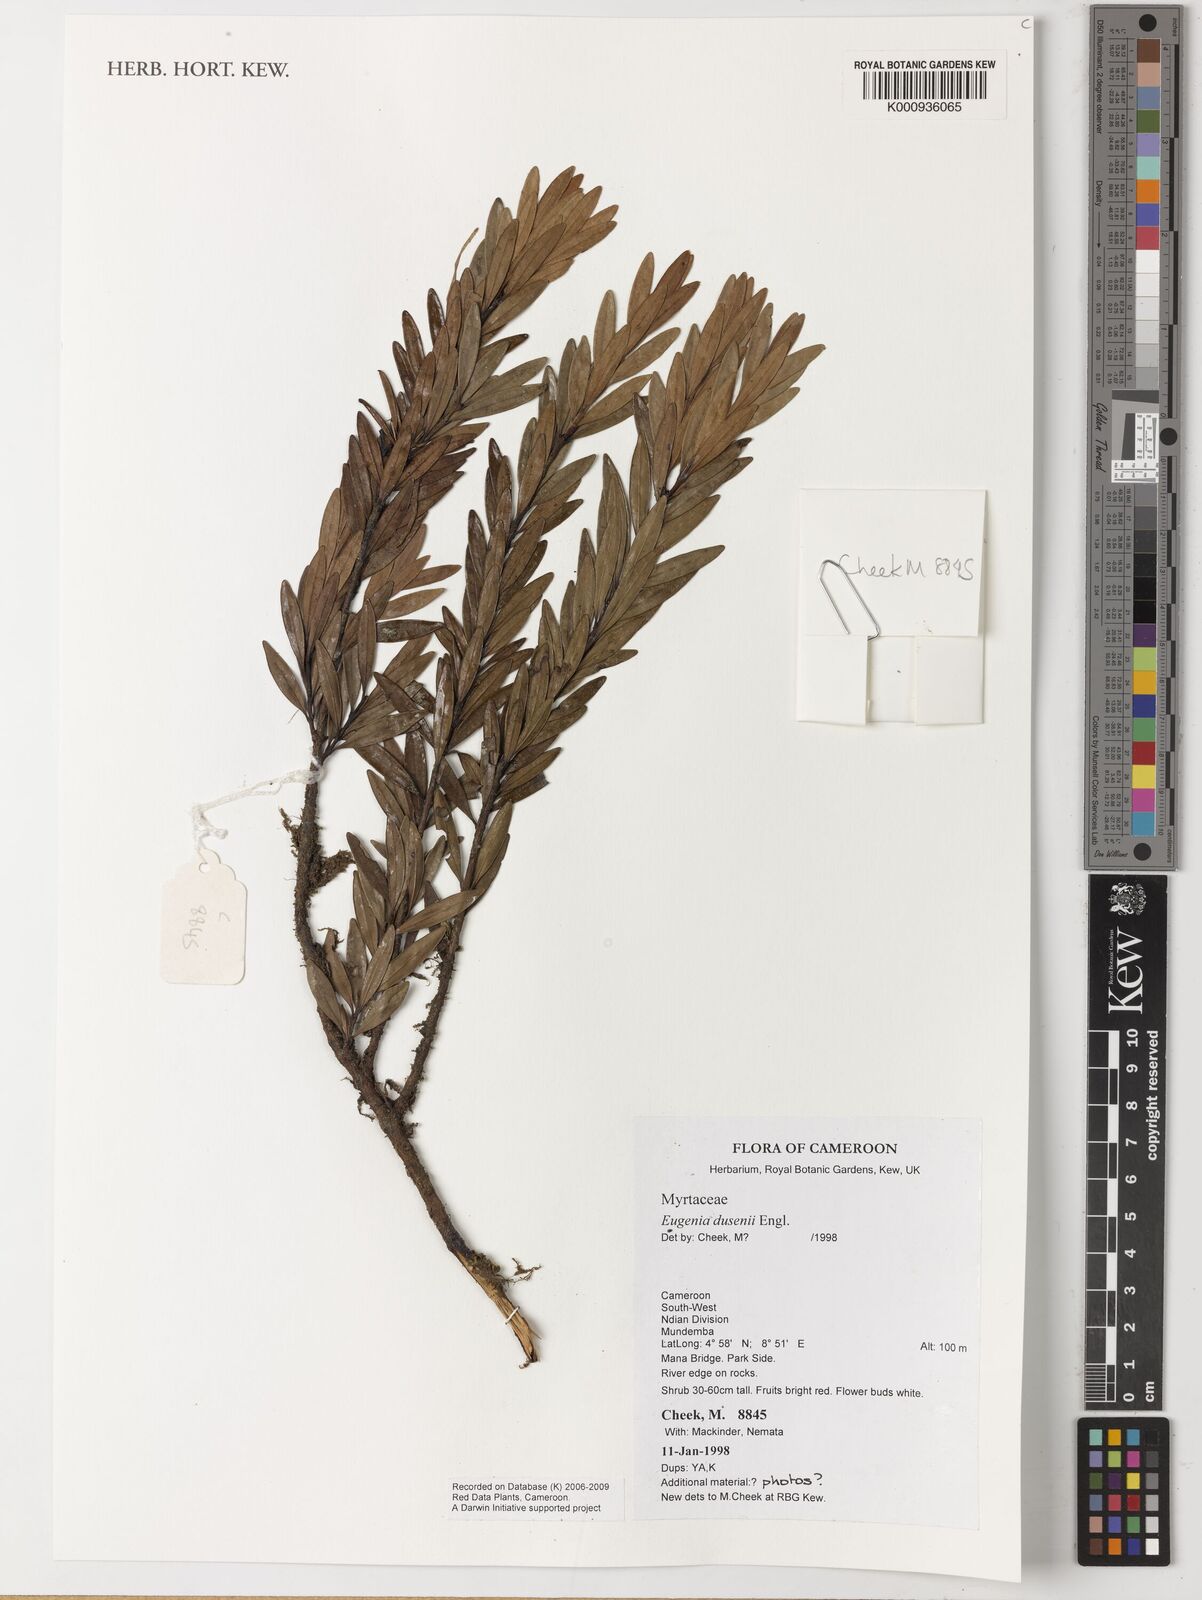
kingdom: Plantae
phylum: Tracheophyta
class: Magnoliopsida
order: Myrtales
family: Myrtaceae
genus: Eugenia
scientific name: Eugenia dusenii
